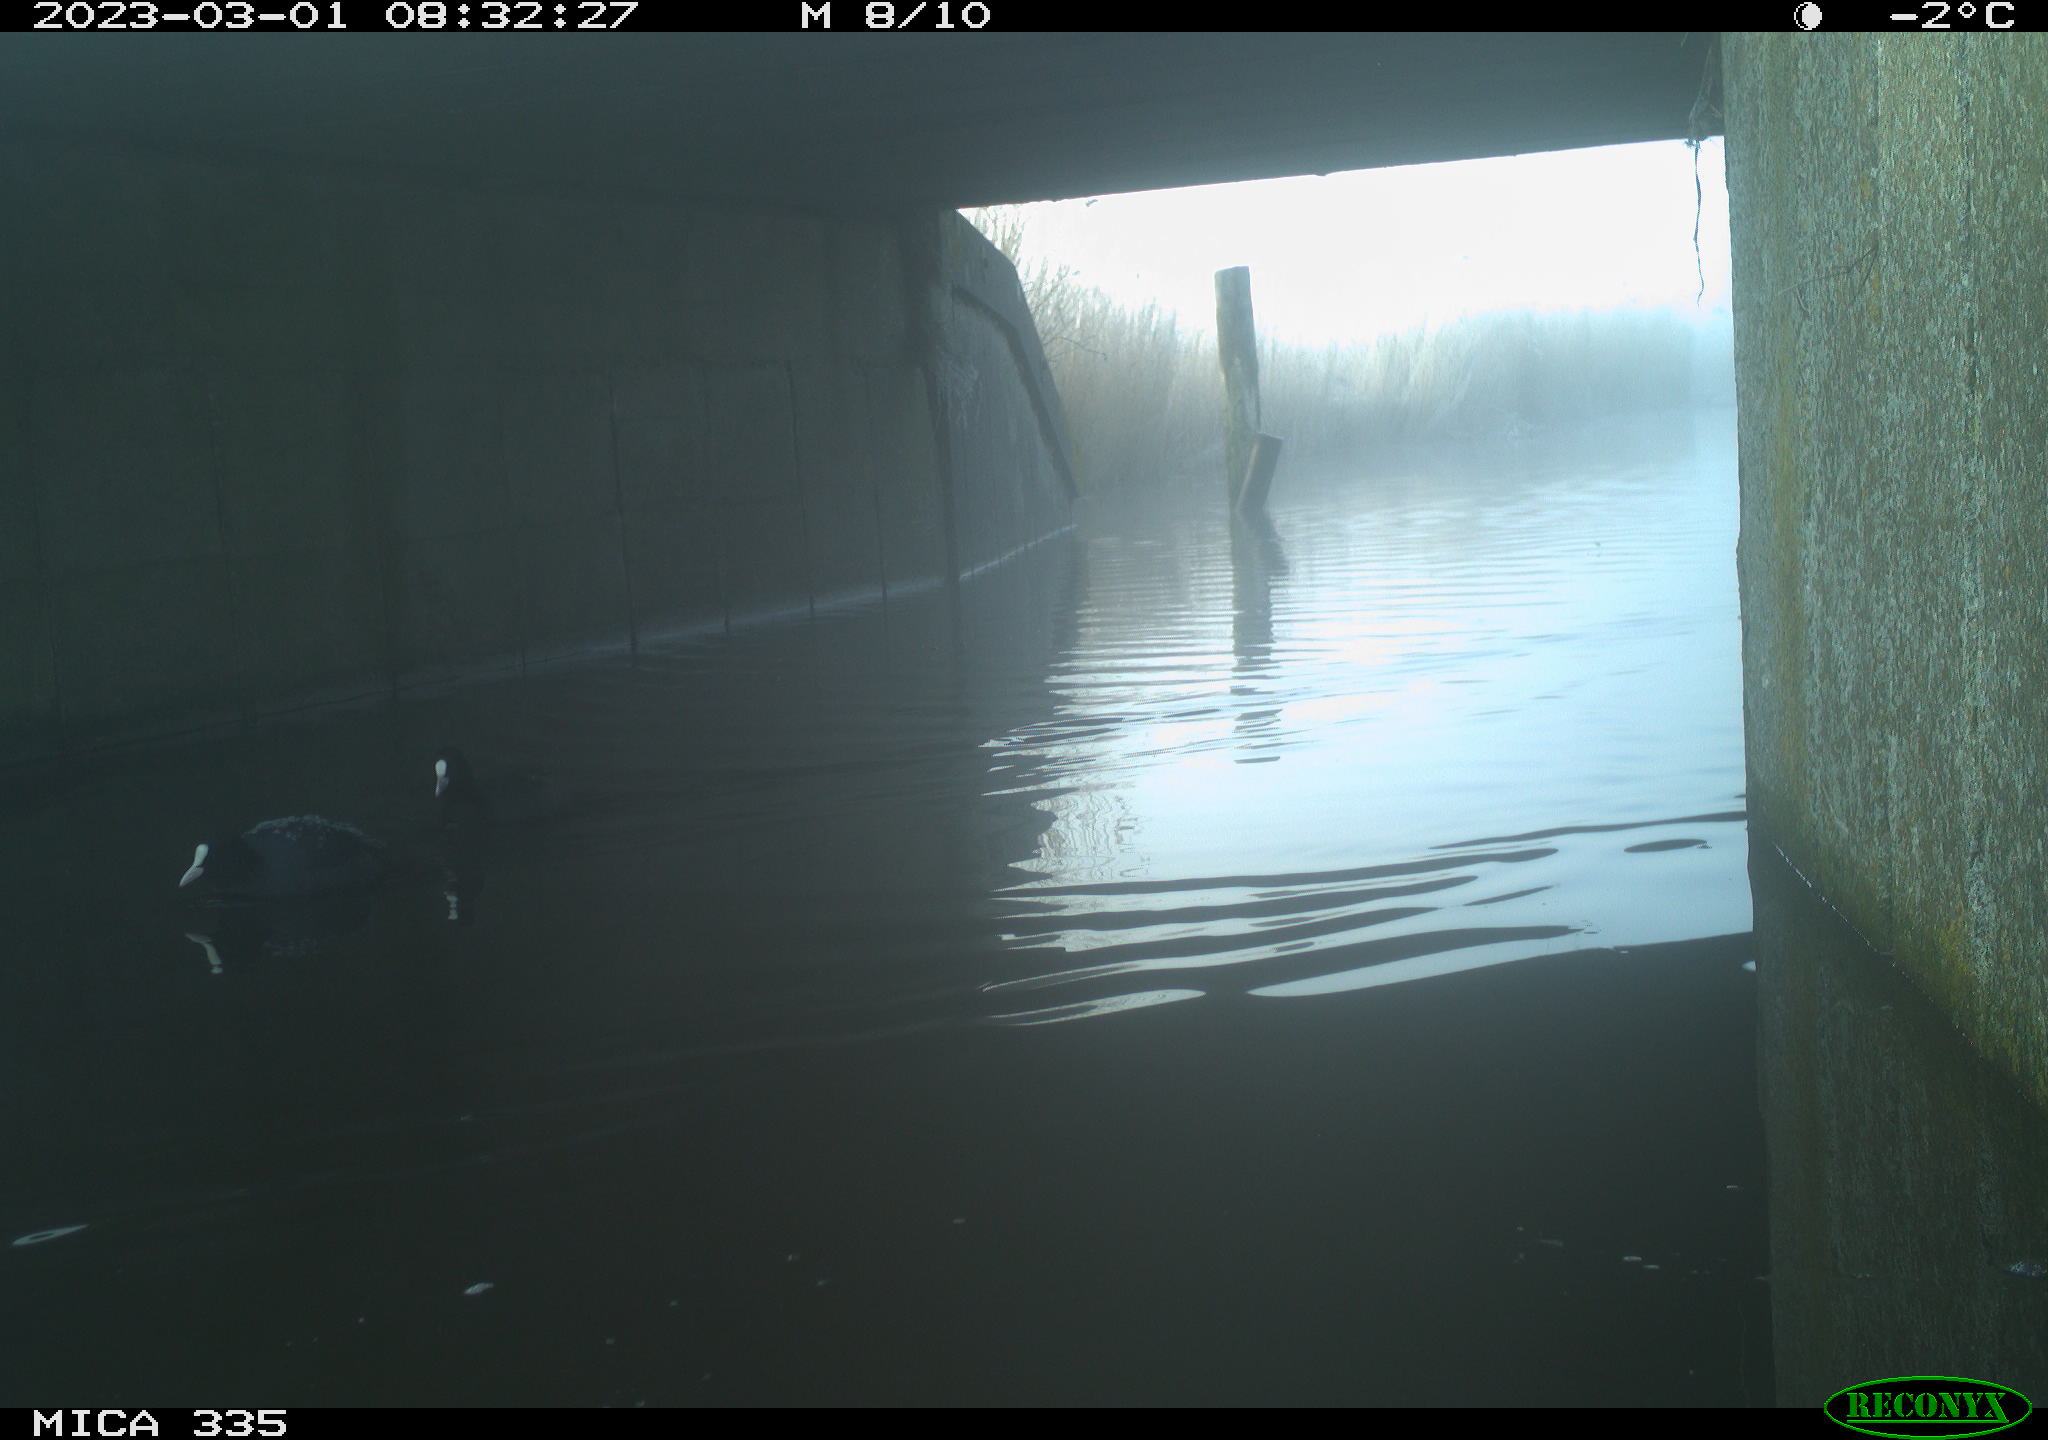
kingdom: Animalia
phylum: Chordata
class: Aves
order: Gruiformes
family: Rallidae
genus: Fulica
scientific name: Fulica atra
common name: Eurasian coot
